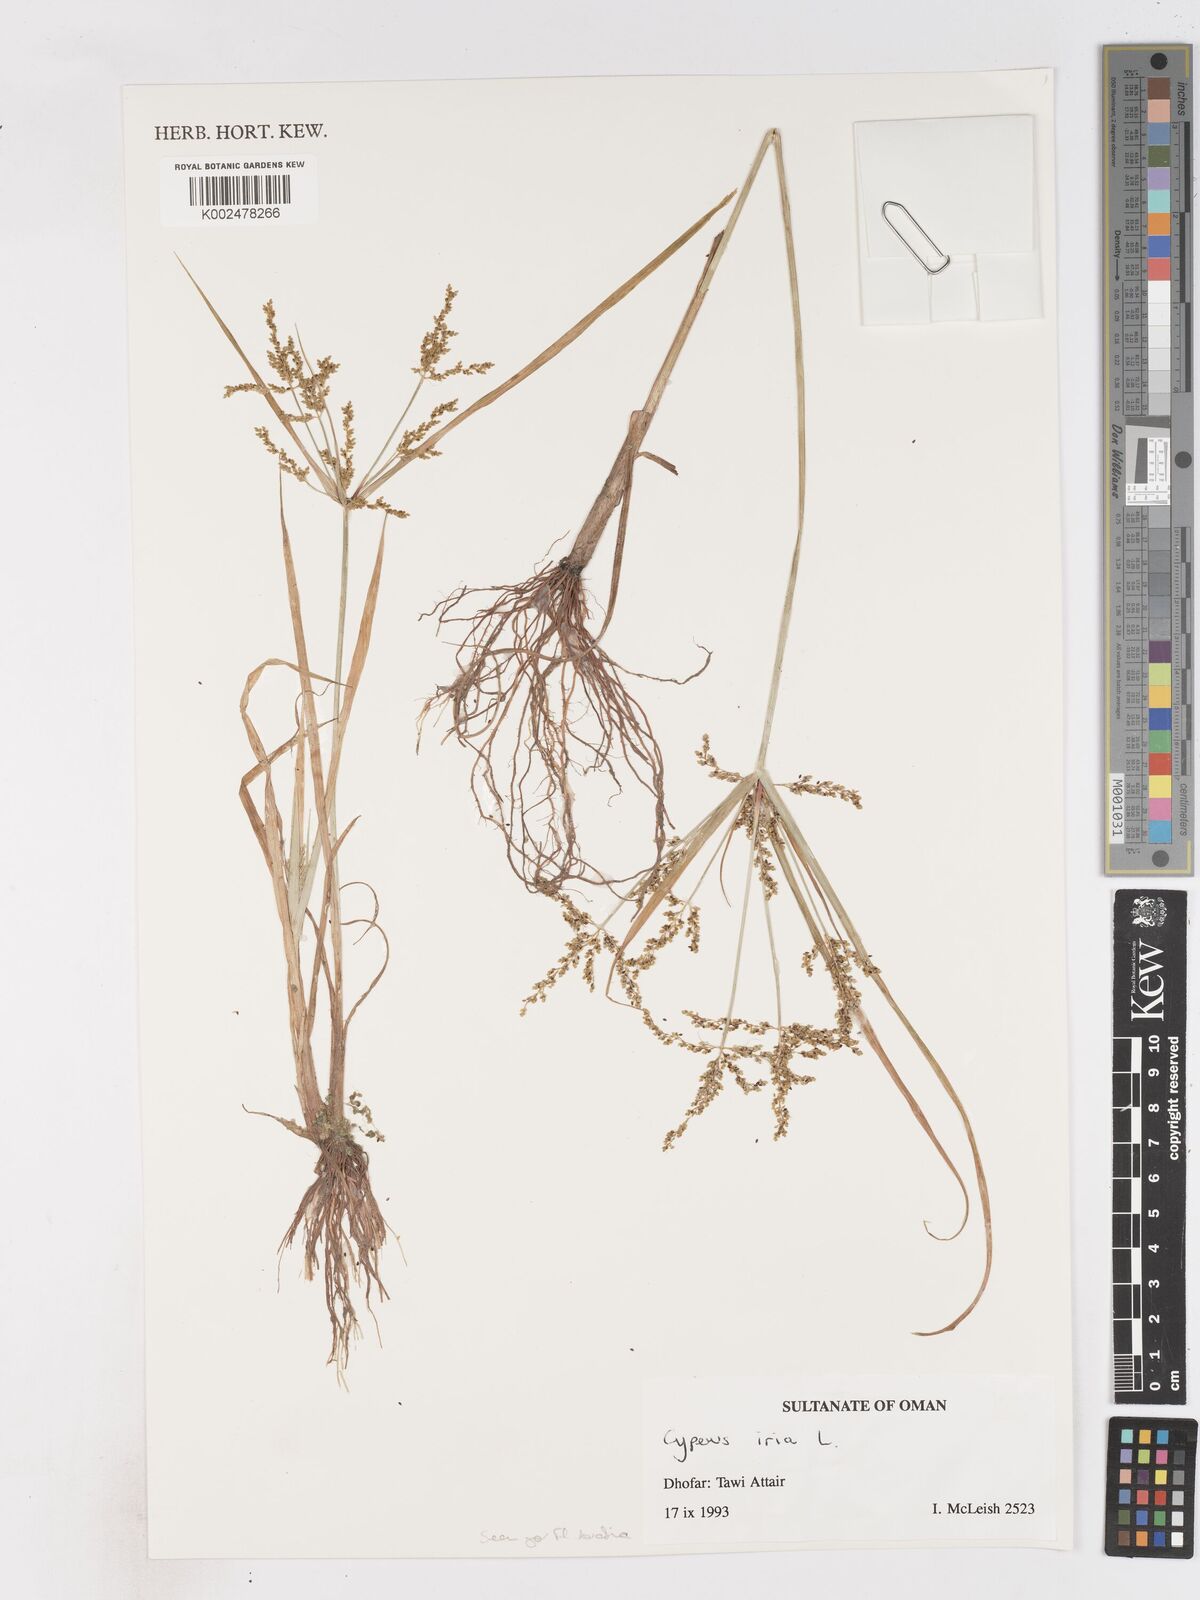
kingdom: Plantae
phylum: Tracheophyta
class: Liliopsida
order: Poales
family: Cyperaceae
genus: Cyperus
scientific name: Cyperus iria
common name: Ricefield flatsedge
